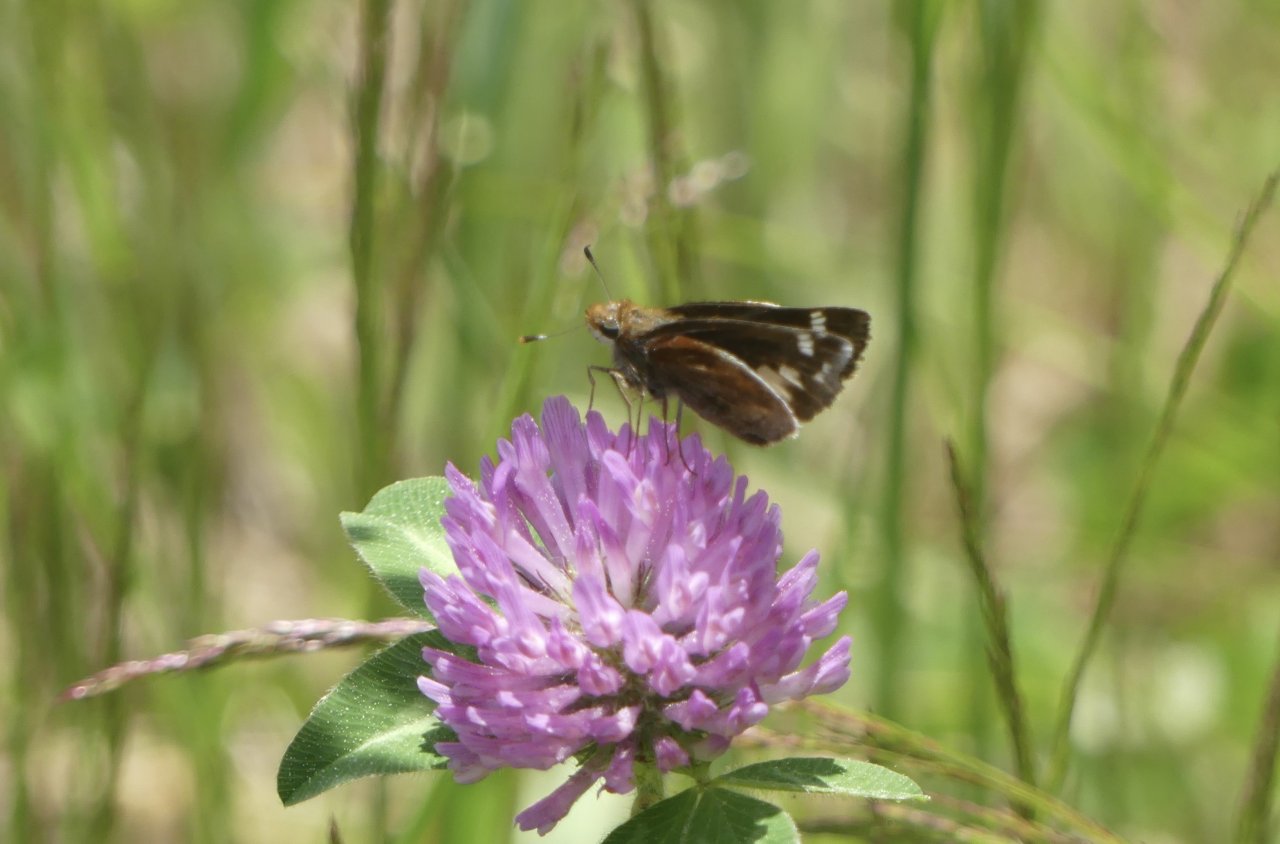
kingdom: Animalia
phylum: Arthropoda
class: Insecta
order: Lepidoptera
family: Hesperiidae
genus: Lon
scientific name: Lon zabulon
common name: Zabulon Skipper
